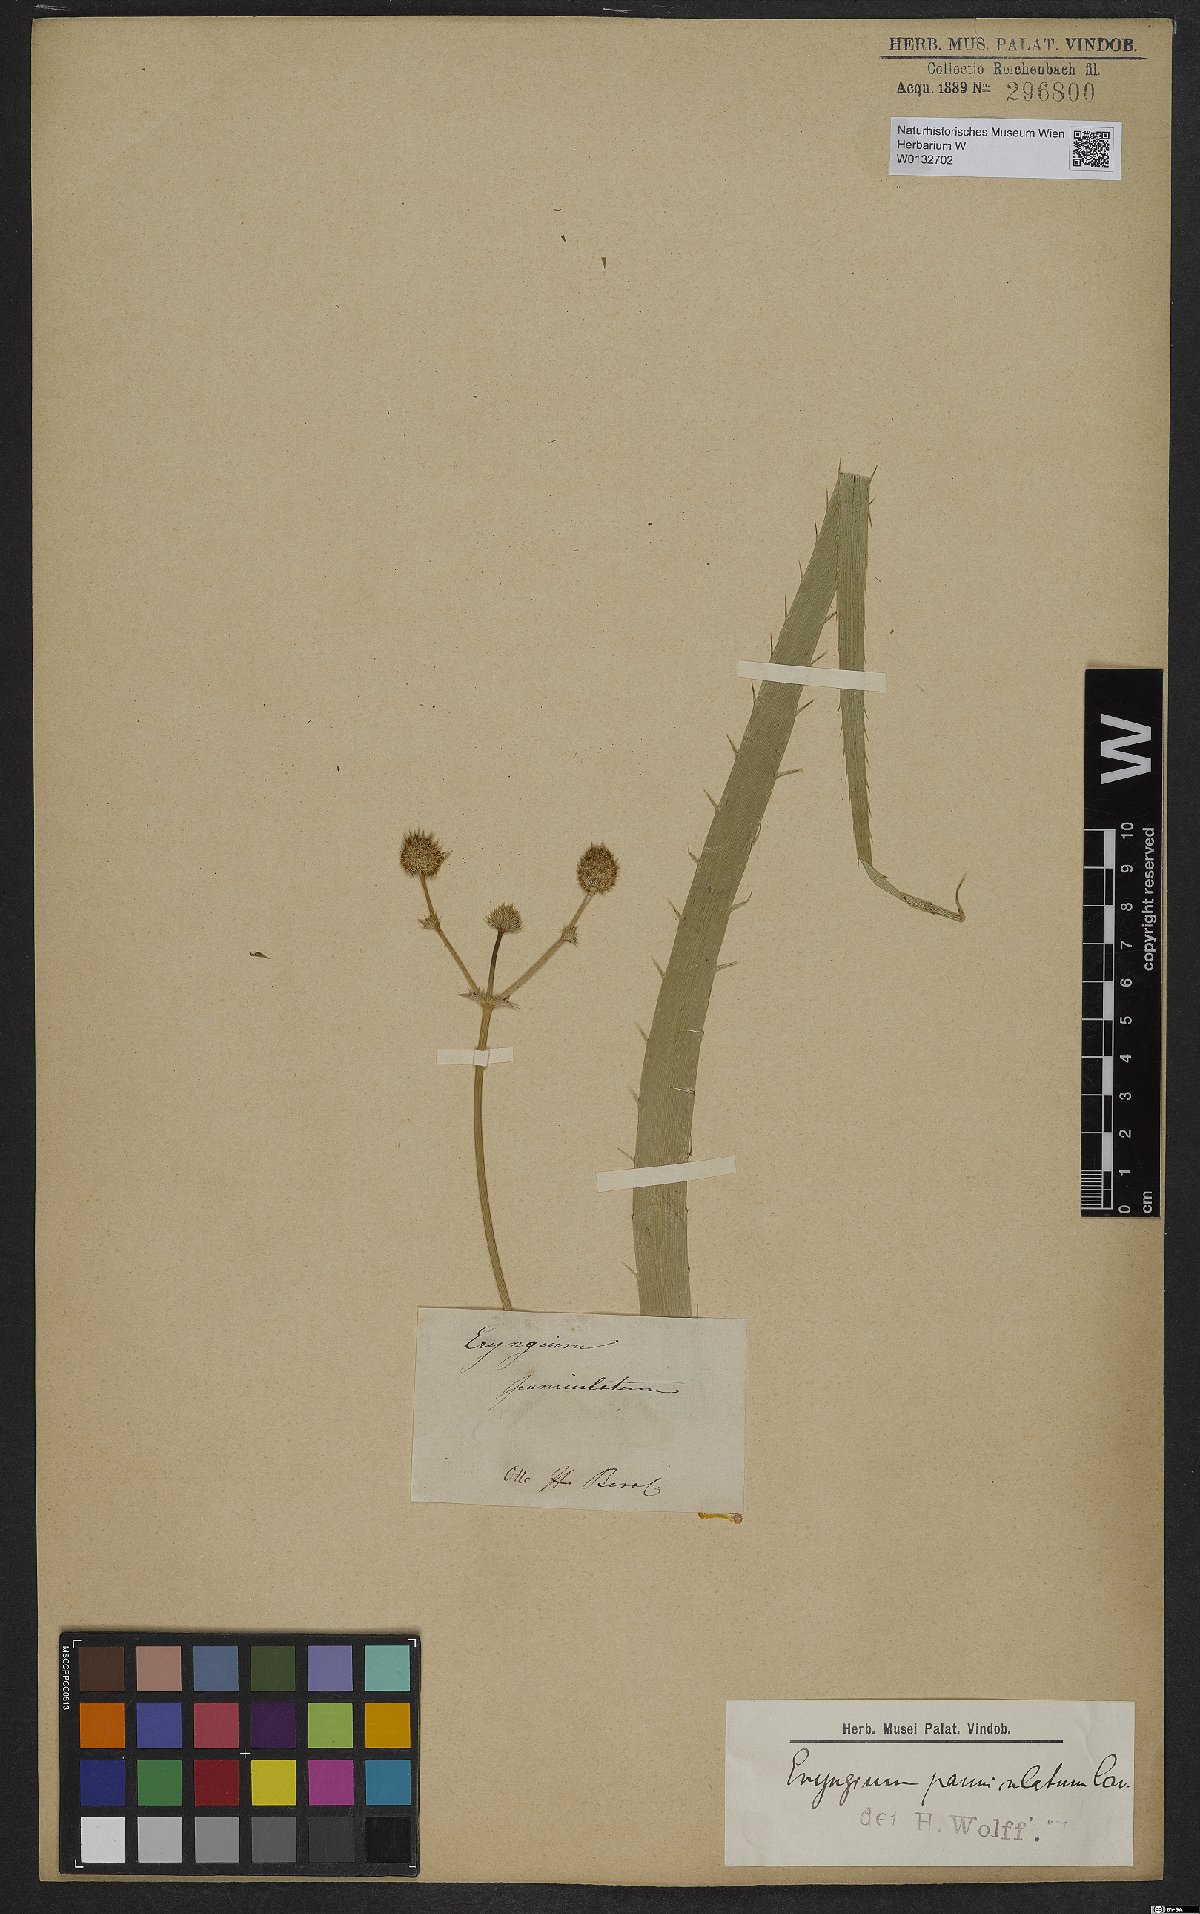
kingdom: Plantae
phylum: Tracheophyta
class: Magnoliopsida
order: Apiales
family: Apiaceae
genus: Eryngium
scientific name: Eryngium humboldtii
